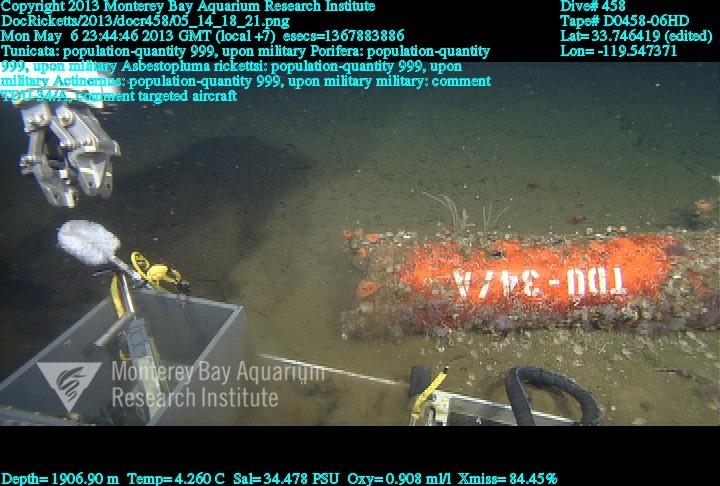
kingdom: Animalia
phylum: Porifera
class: Demospongiae
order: Poecilosclerida
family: Cladorhizidae
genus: Asbestopluma
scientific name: Asbestopluma rickettsi
